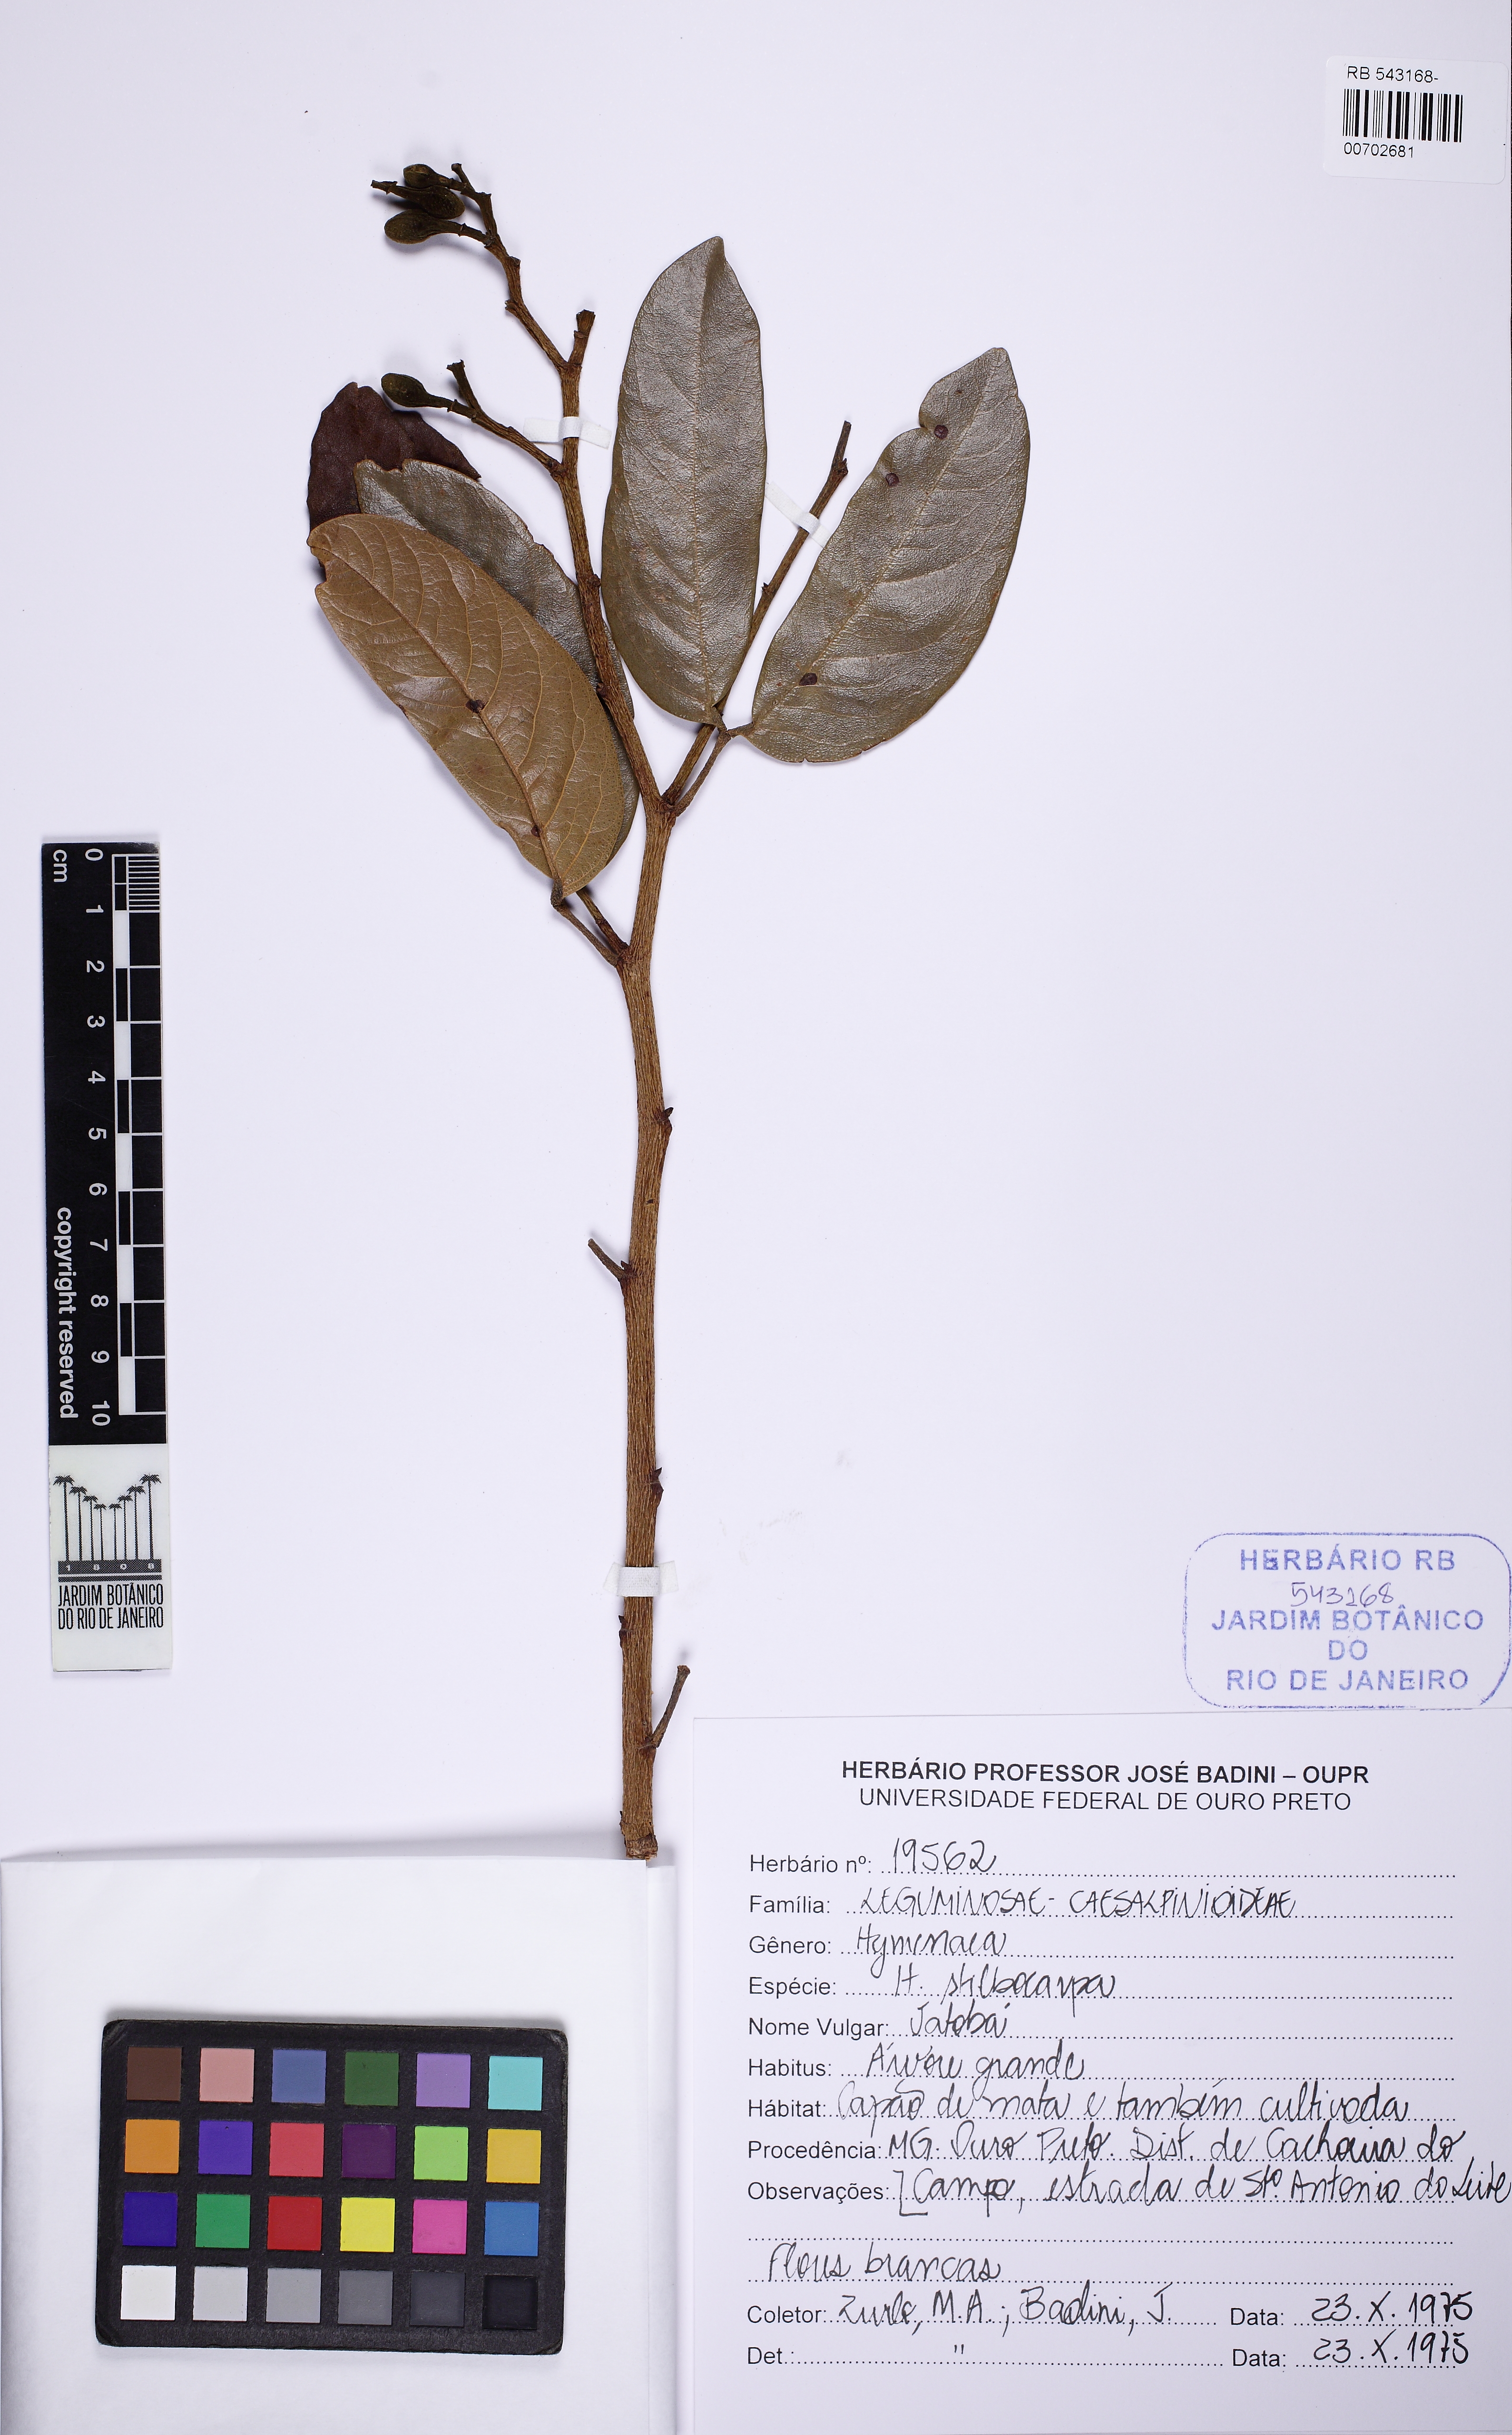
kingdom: Plantae
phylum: Tracheophyta
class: Magnoliopsida
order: Fabales
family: Fabaceae
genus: Hymenaea
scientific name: Hymenaea stigonocarpa
